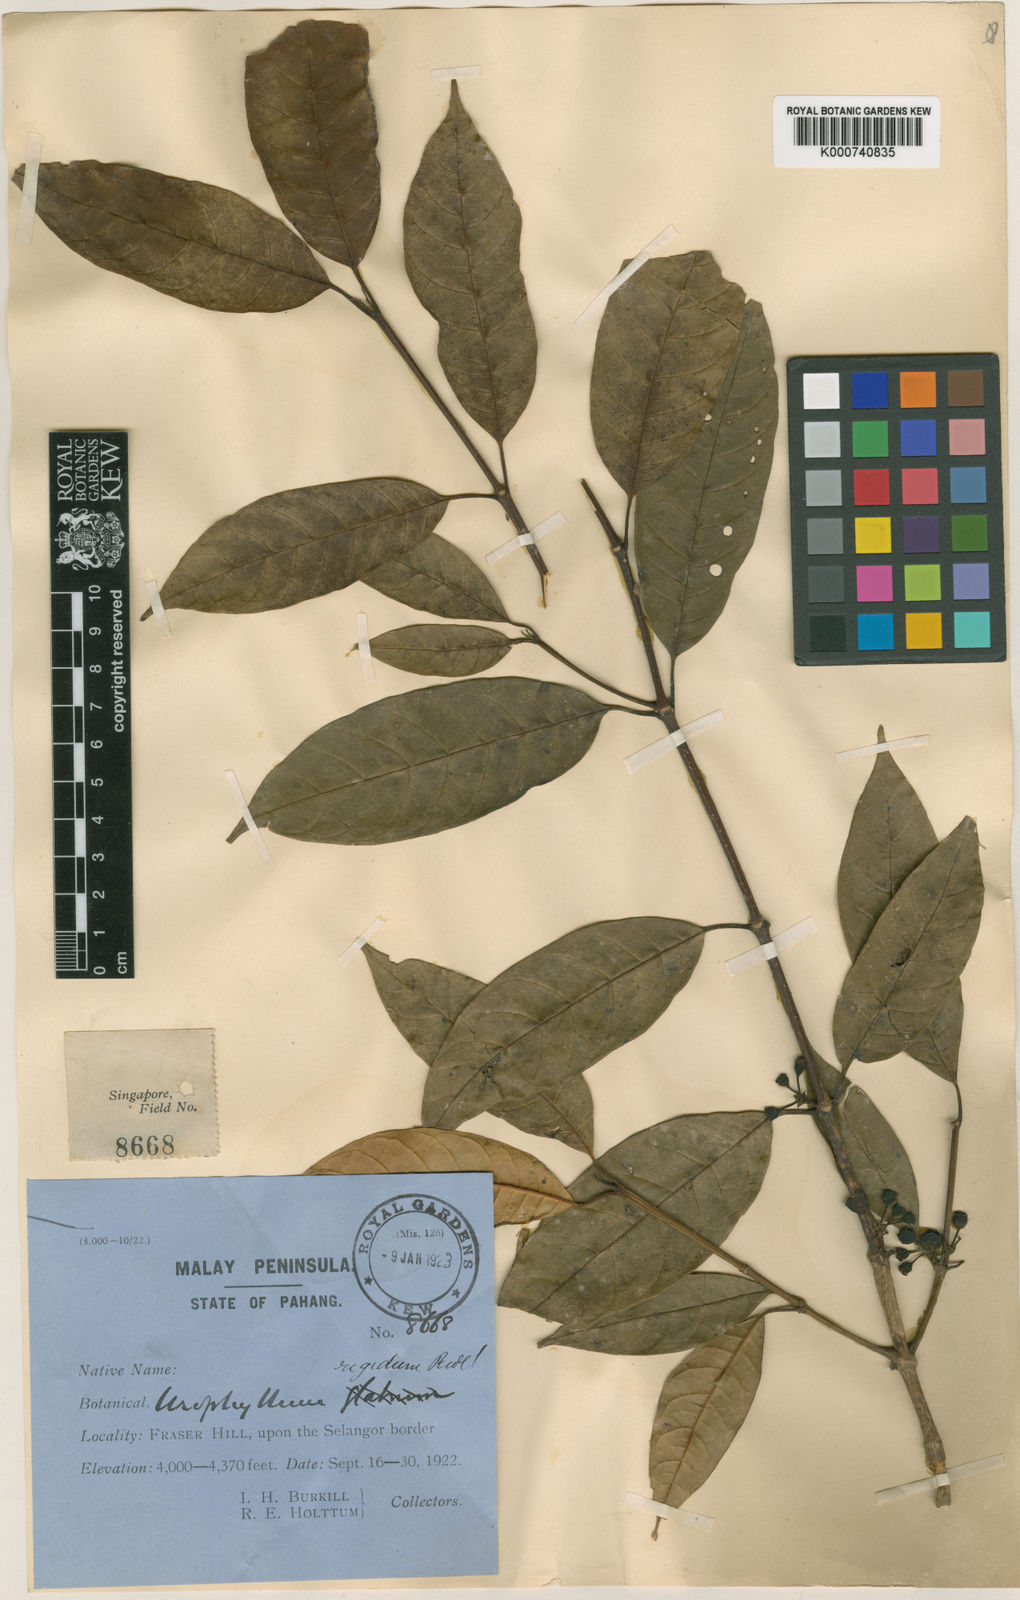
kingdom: Plantae
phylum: Tracheophyta
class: Magnoliopsida
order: Gentianales
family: Rubiaceae
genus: Urophyllum
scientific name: Urophyllum leucophlaeum
